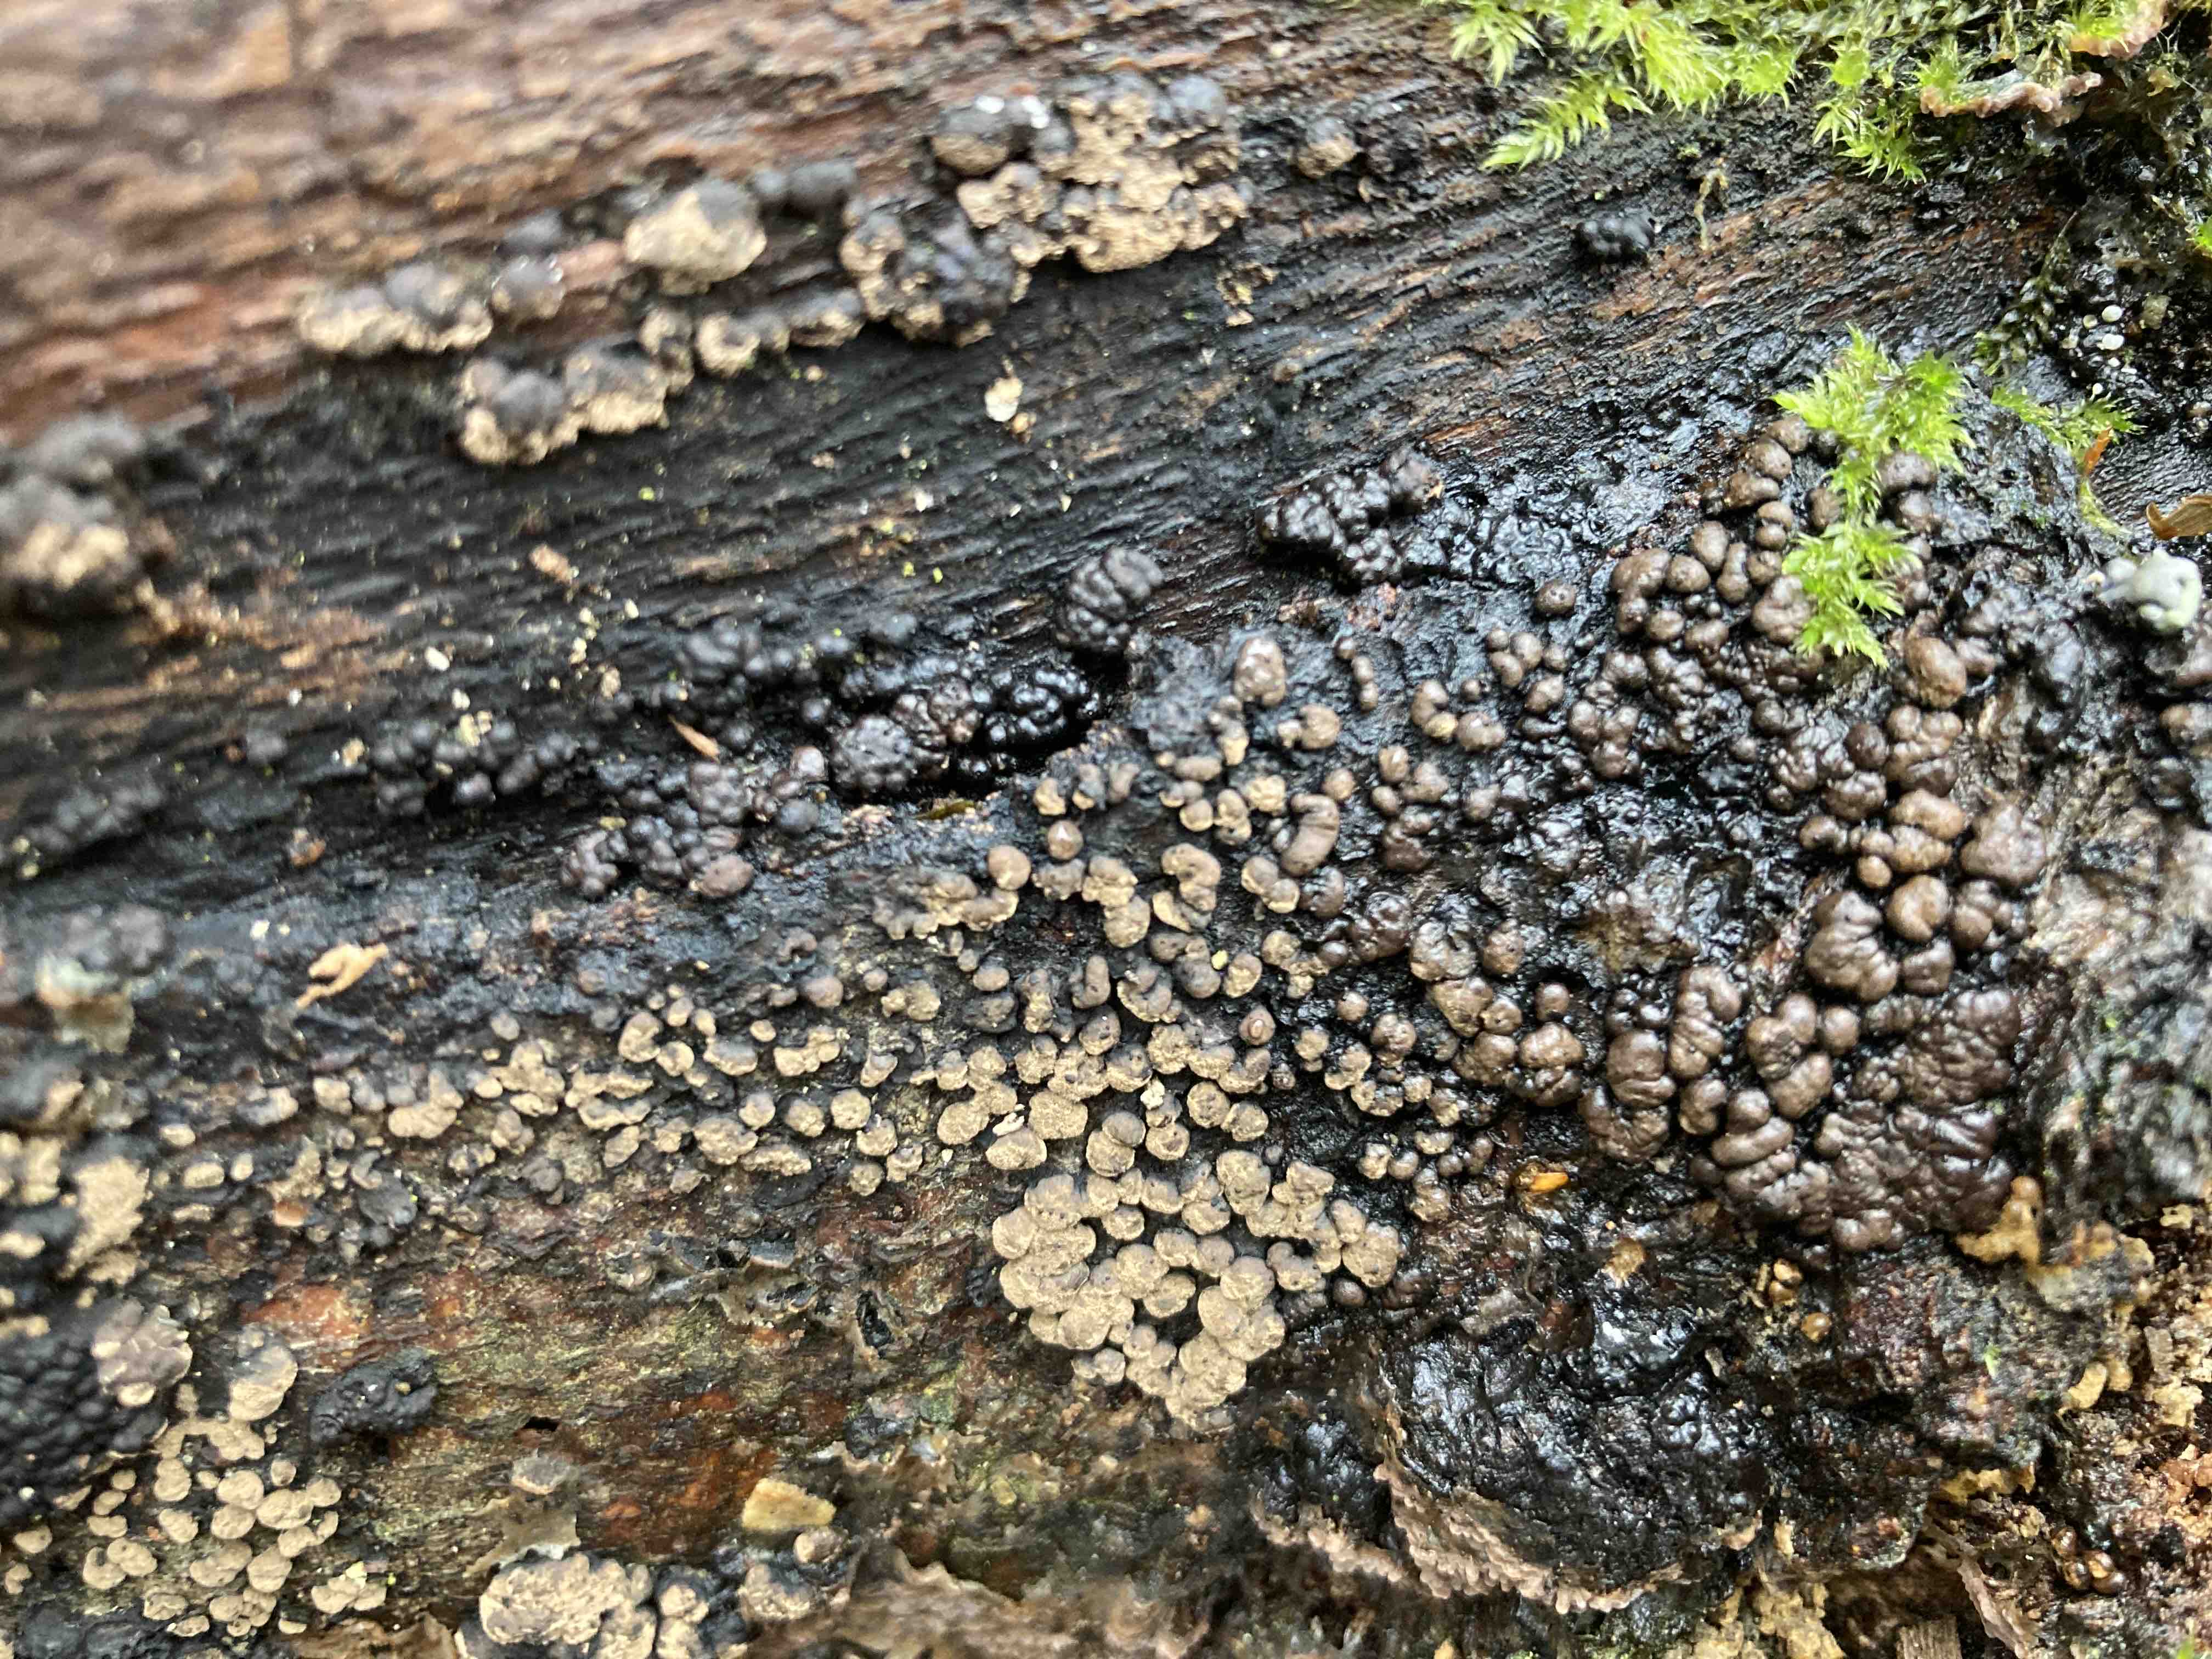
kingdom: Fungi
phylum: Ascomycota
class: Sordariomycetes
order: Xylariales
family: Hypoxylaceae
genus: Jackrogersella
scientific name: Jackrogersella cohaerens
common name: sammenflydende kulbær
